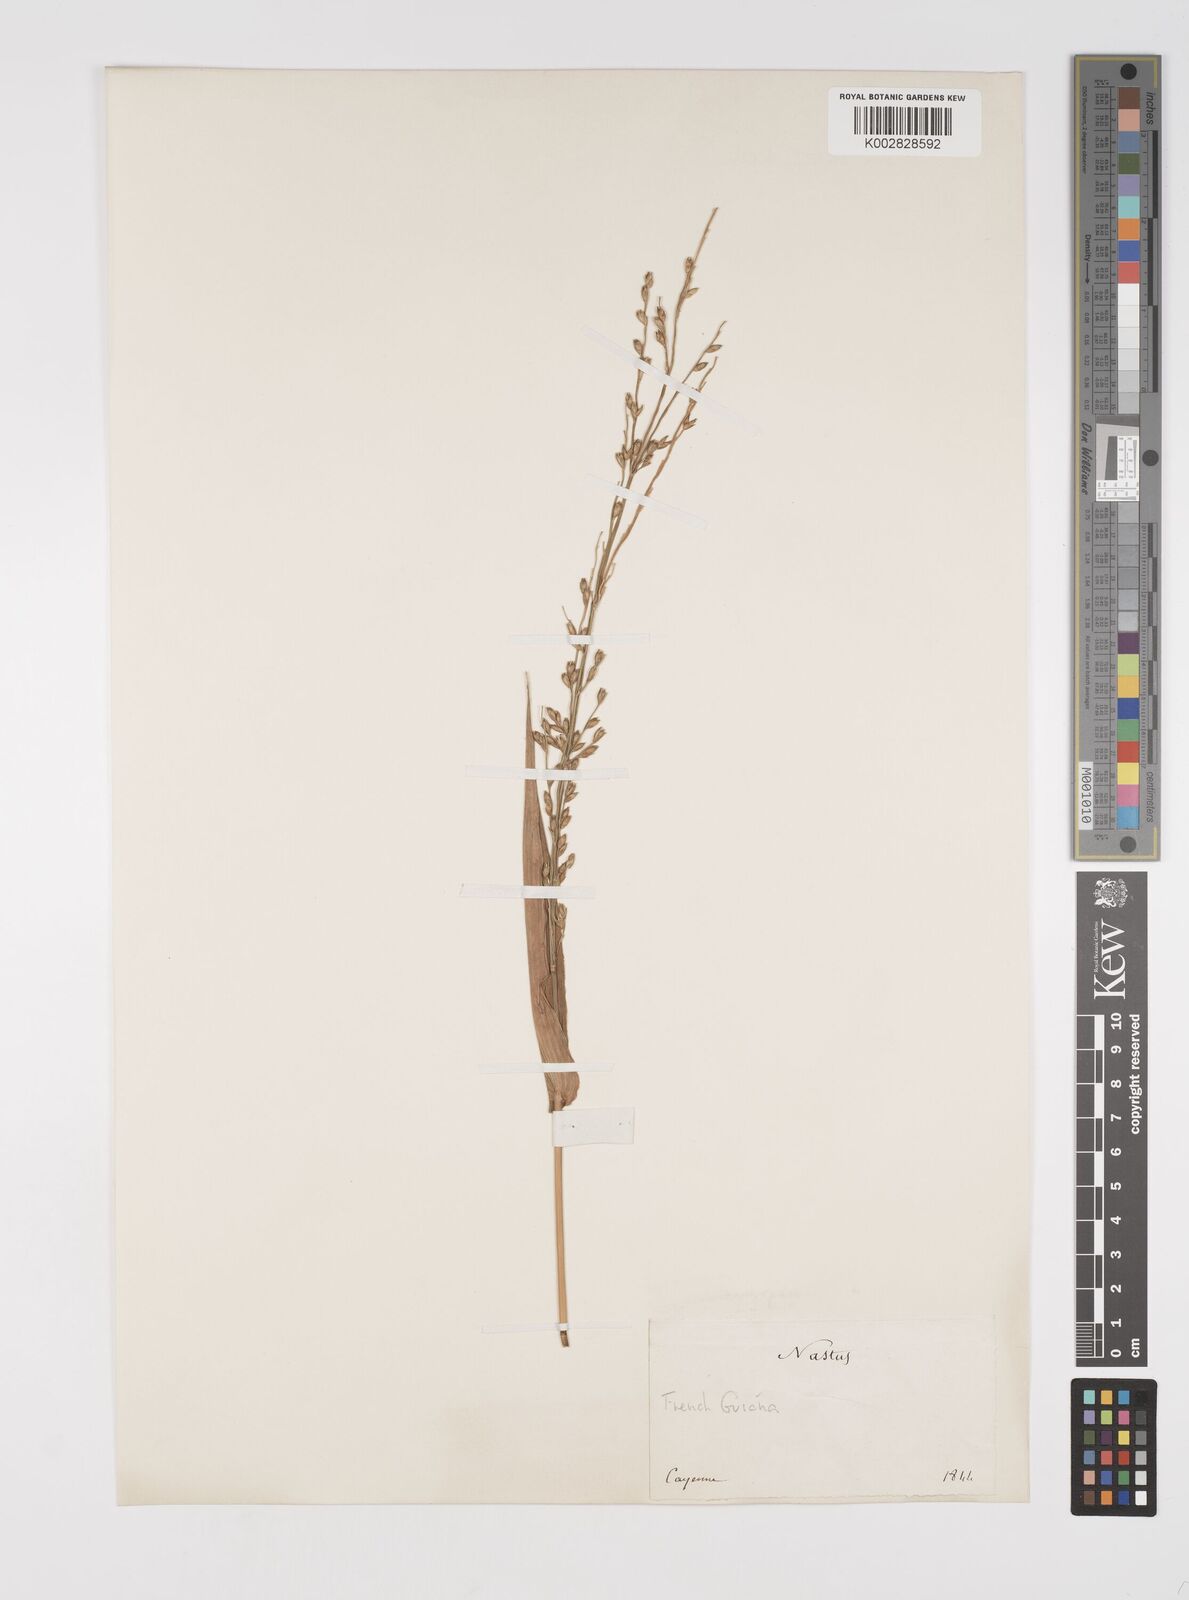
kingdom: Plantae
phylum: Tracheophyta
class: Liliopsida
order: Poales
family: Poaceae
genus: Acroceras
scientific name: Acroceras zizanioides
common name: Oat grass
